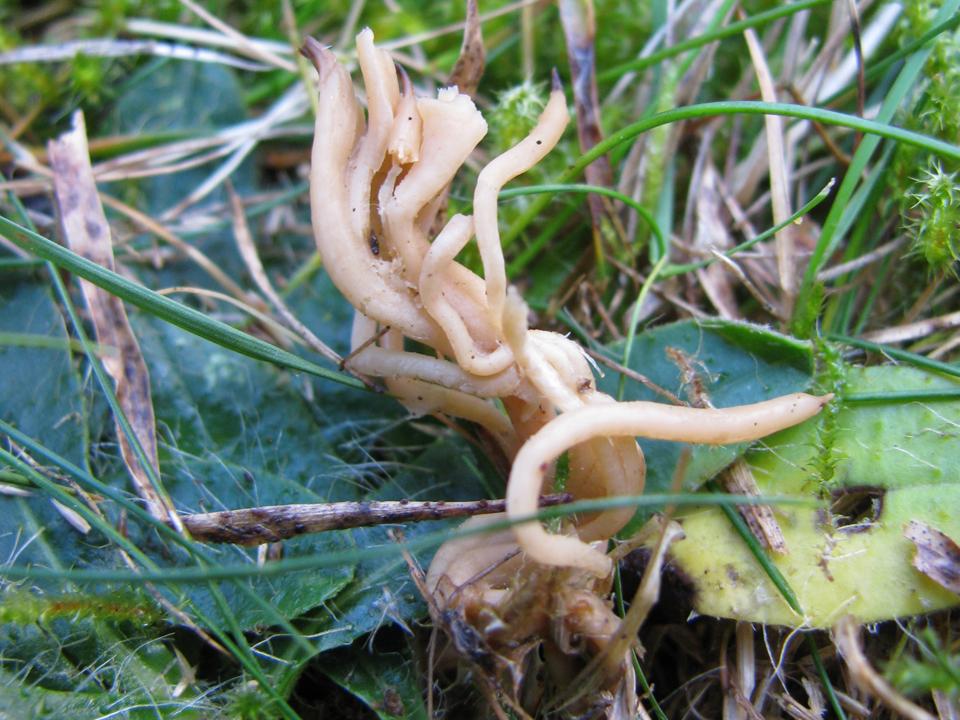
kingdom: Fungi
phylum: Basidiomycota
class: Agaricomycetes
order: Agaricales
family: Clavariaceae
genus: Ramariopsis
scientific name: Ramariopsis subtilis
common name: Slender coral
